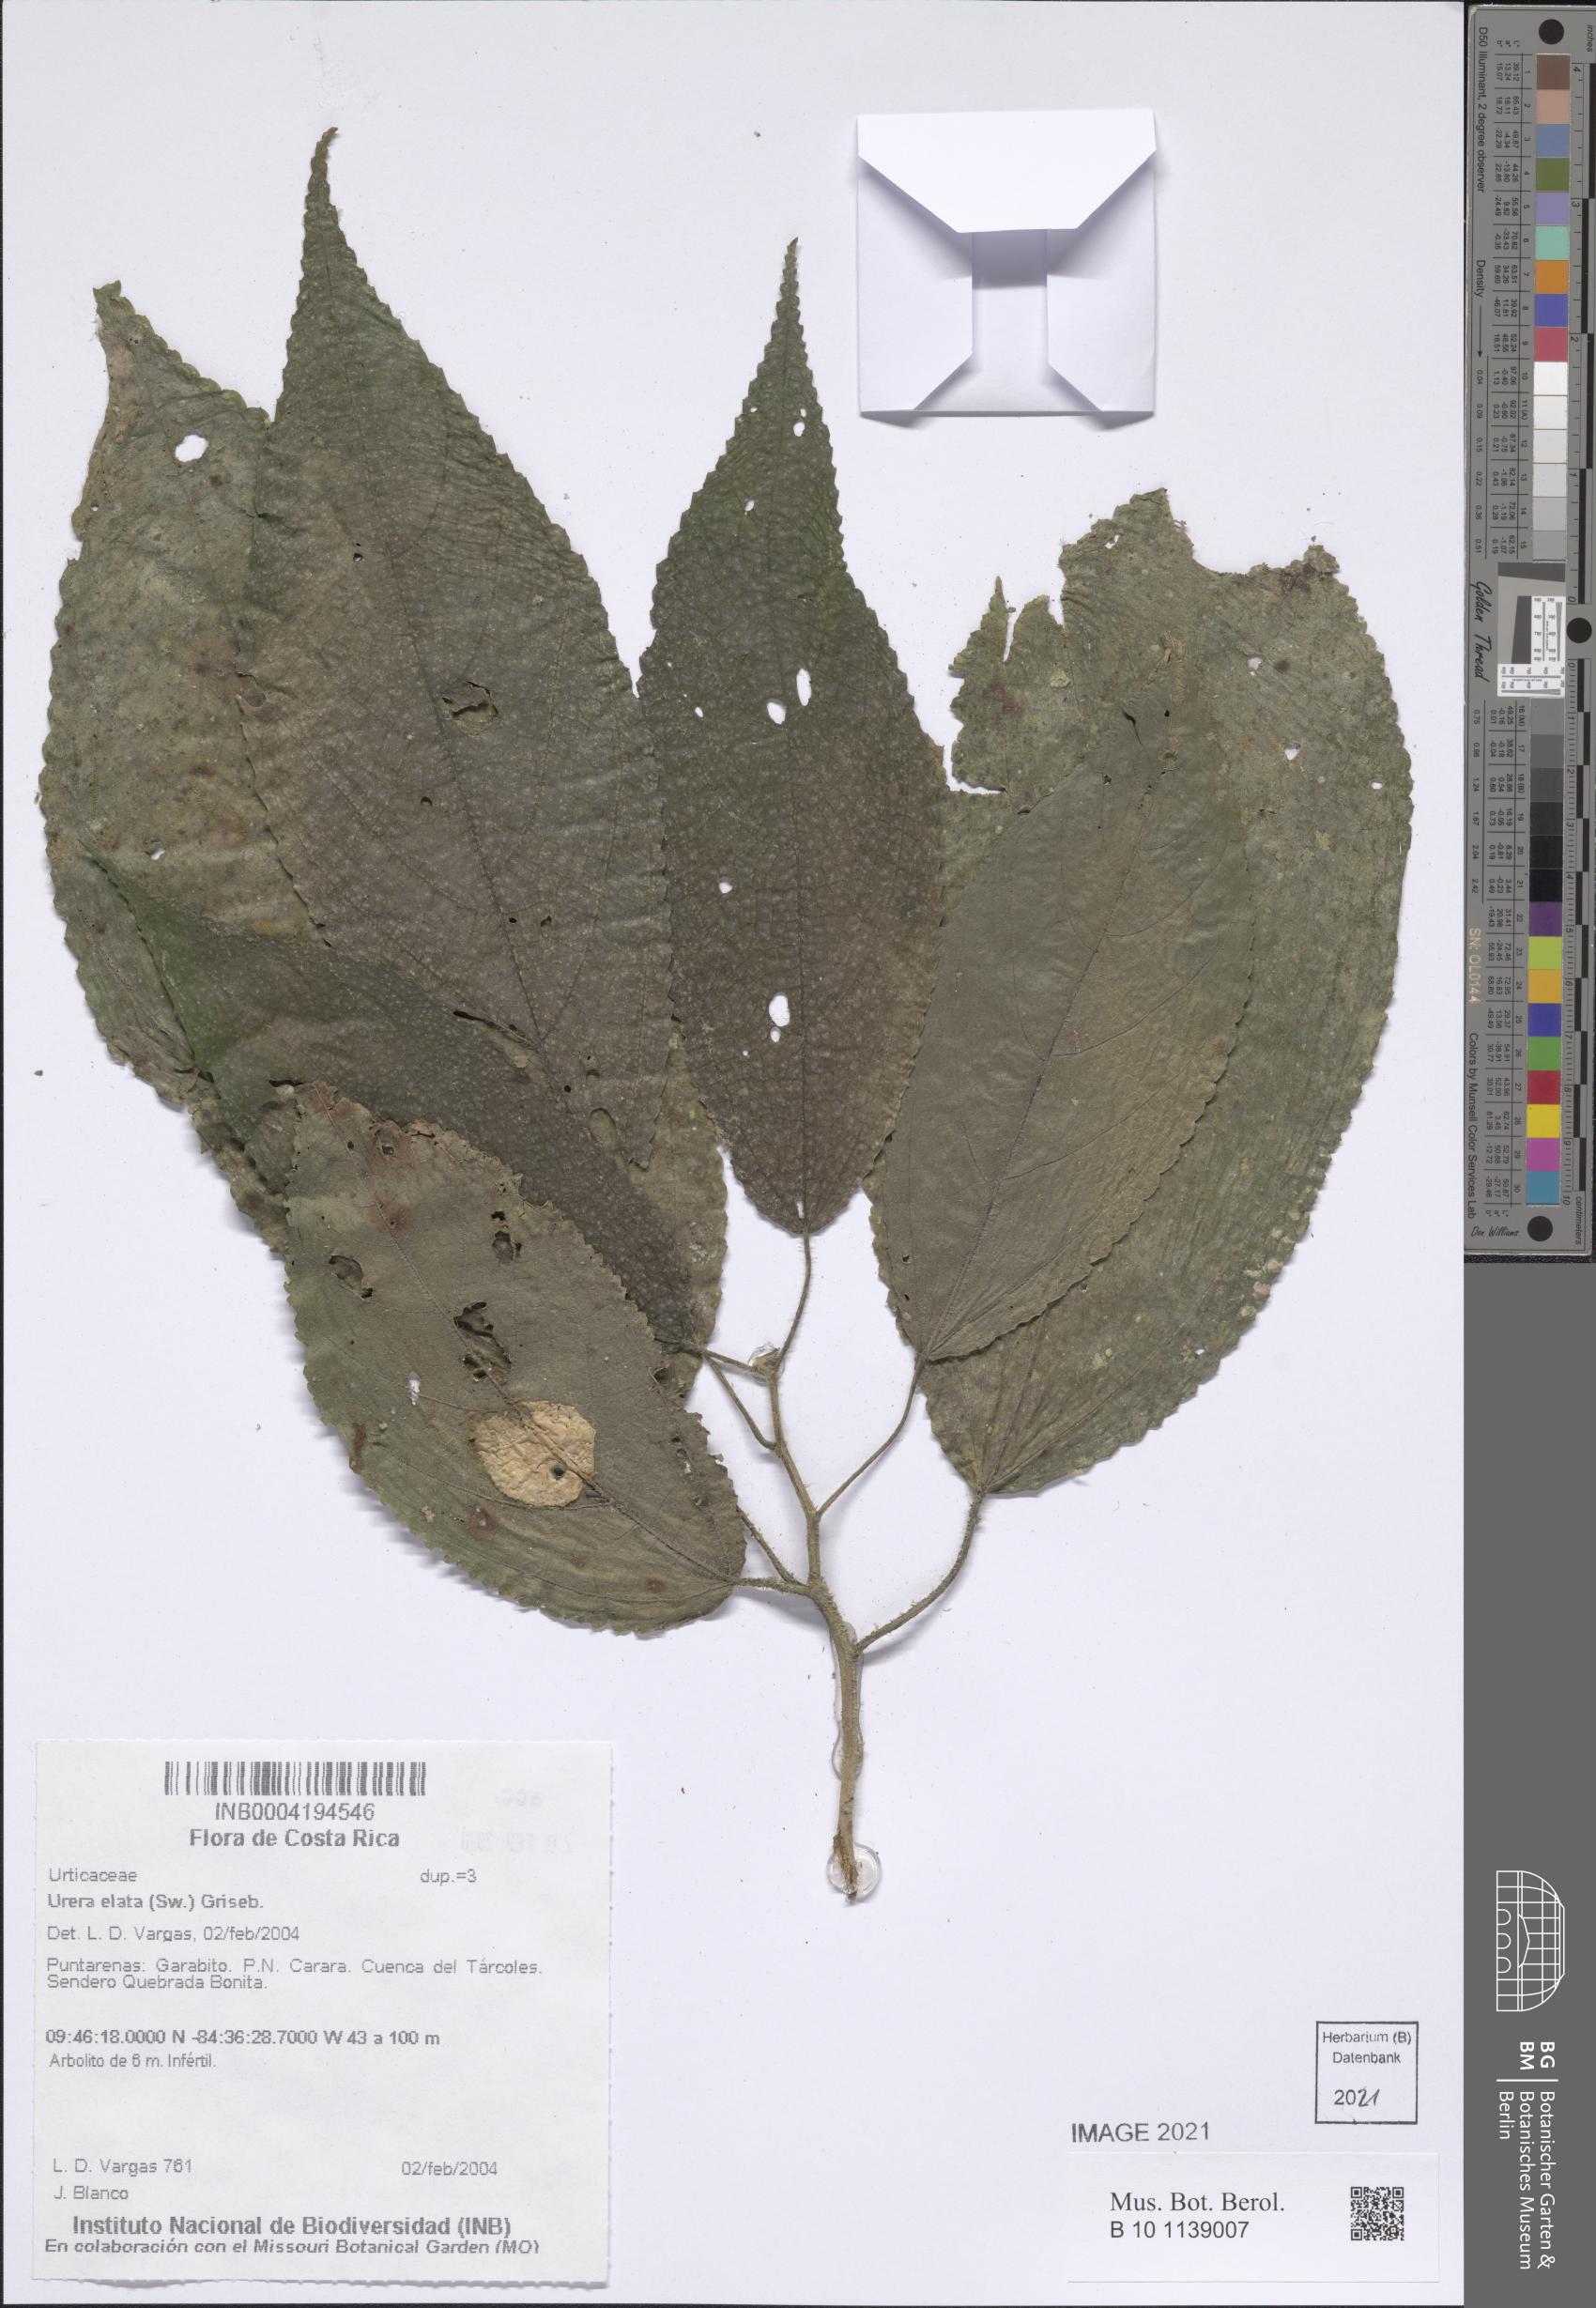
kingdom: Plantae
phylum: Tracheophyta
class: Magnoliopsida
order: Rosales
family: Urticaceae
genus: Urera
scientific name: Urera
